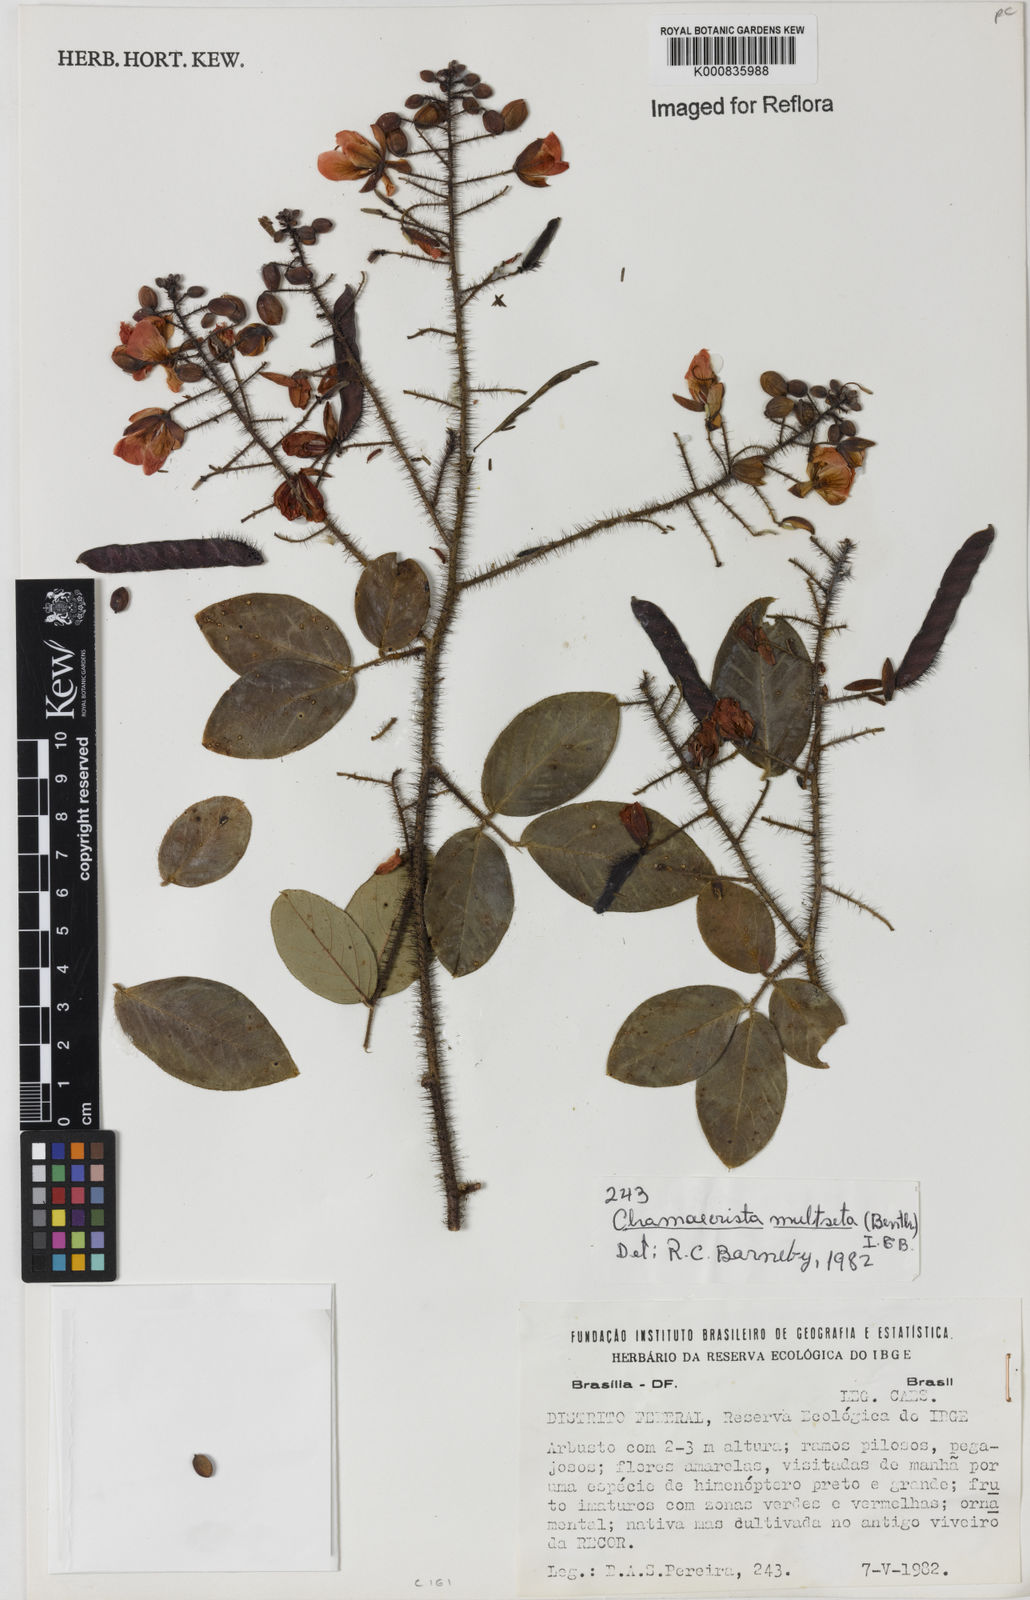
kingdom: Plantae
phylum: Tracheophyta
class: Magnoliopsida
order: Fabales
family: Fabaceae
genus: Chamaecrista
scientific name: Chamaecrista multiseta
